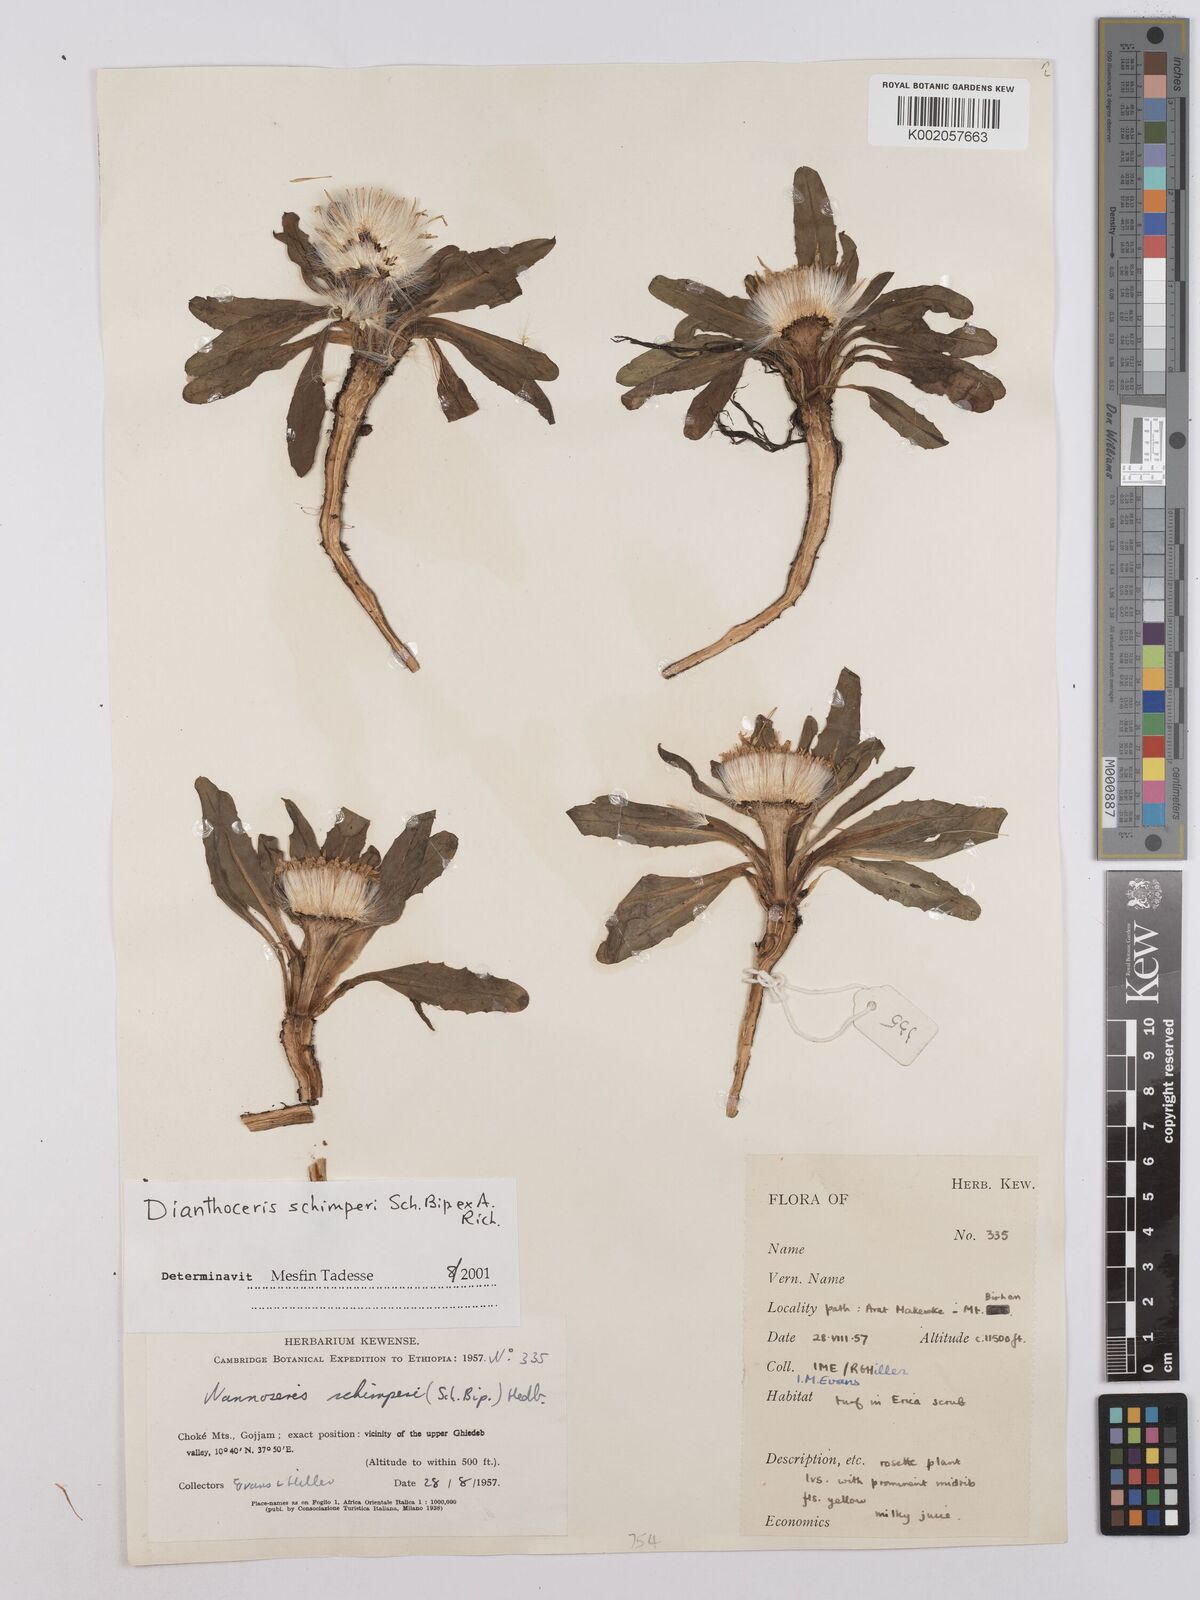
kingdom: Plantae
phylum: Tracheophyta
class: Magnoliopsida
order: Asterales
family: Asteraceae
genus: Crepis
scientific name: Crepis foetida
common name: Stinking hawk's-beard
